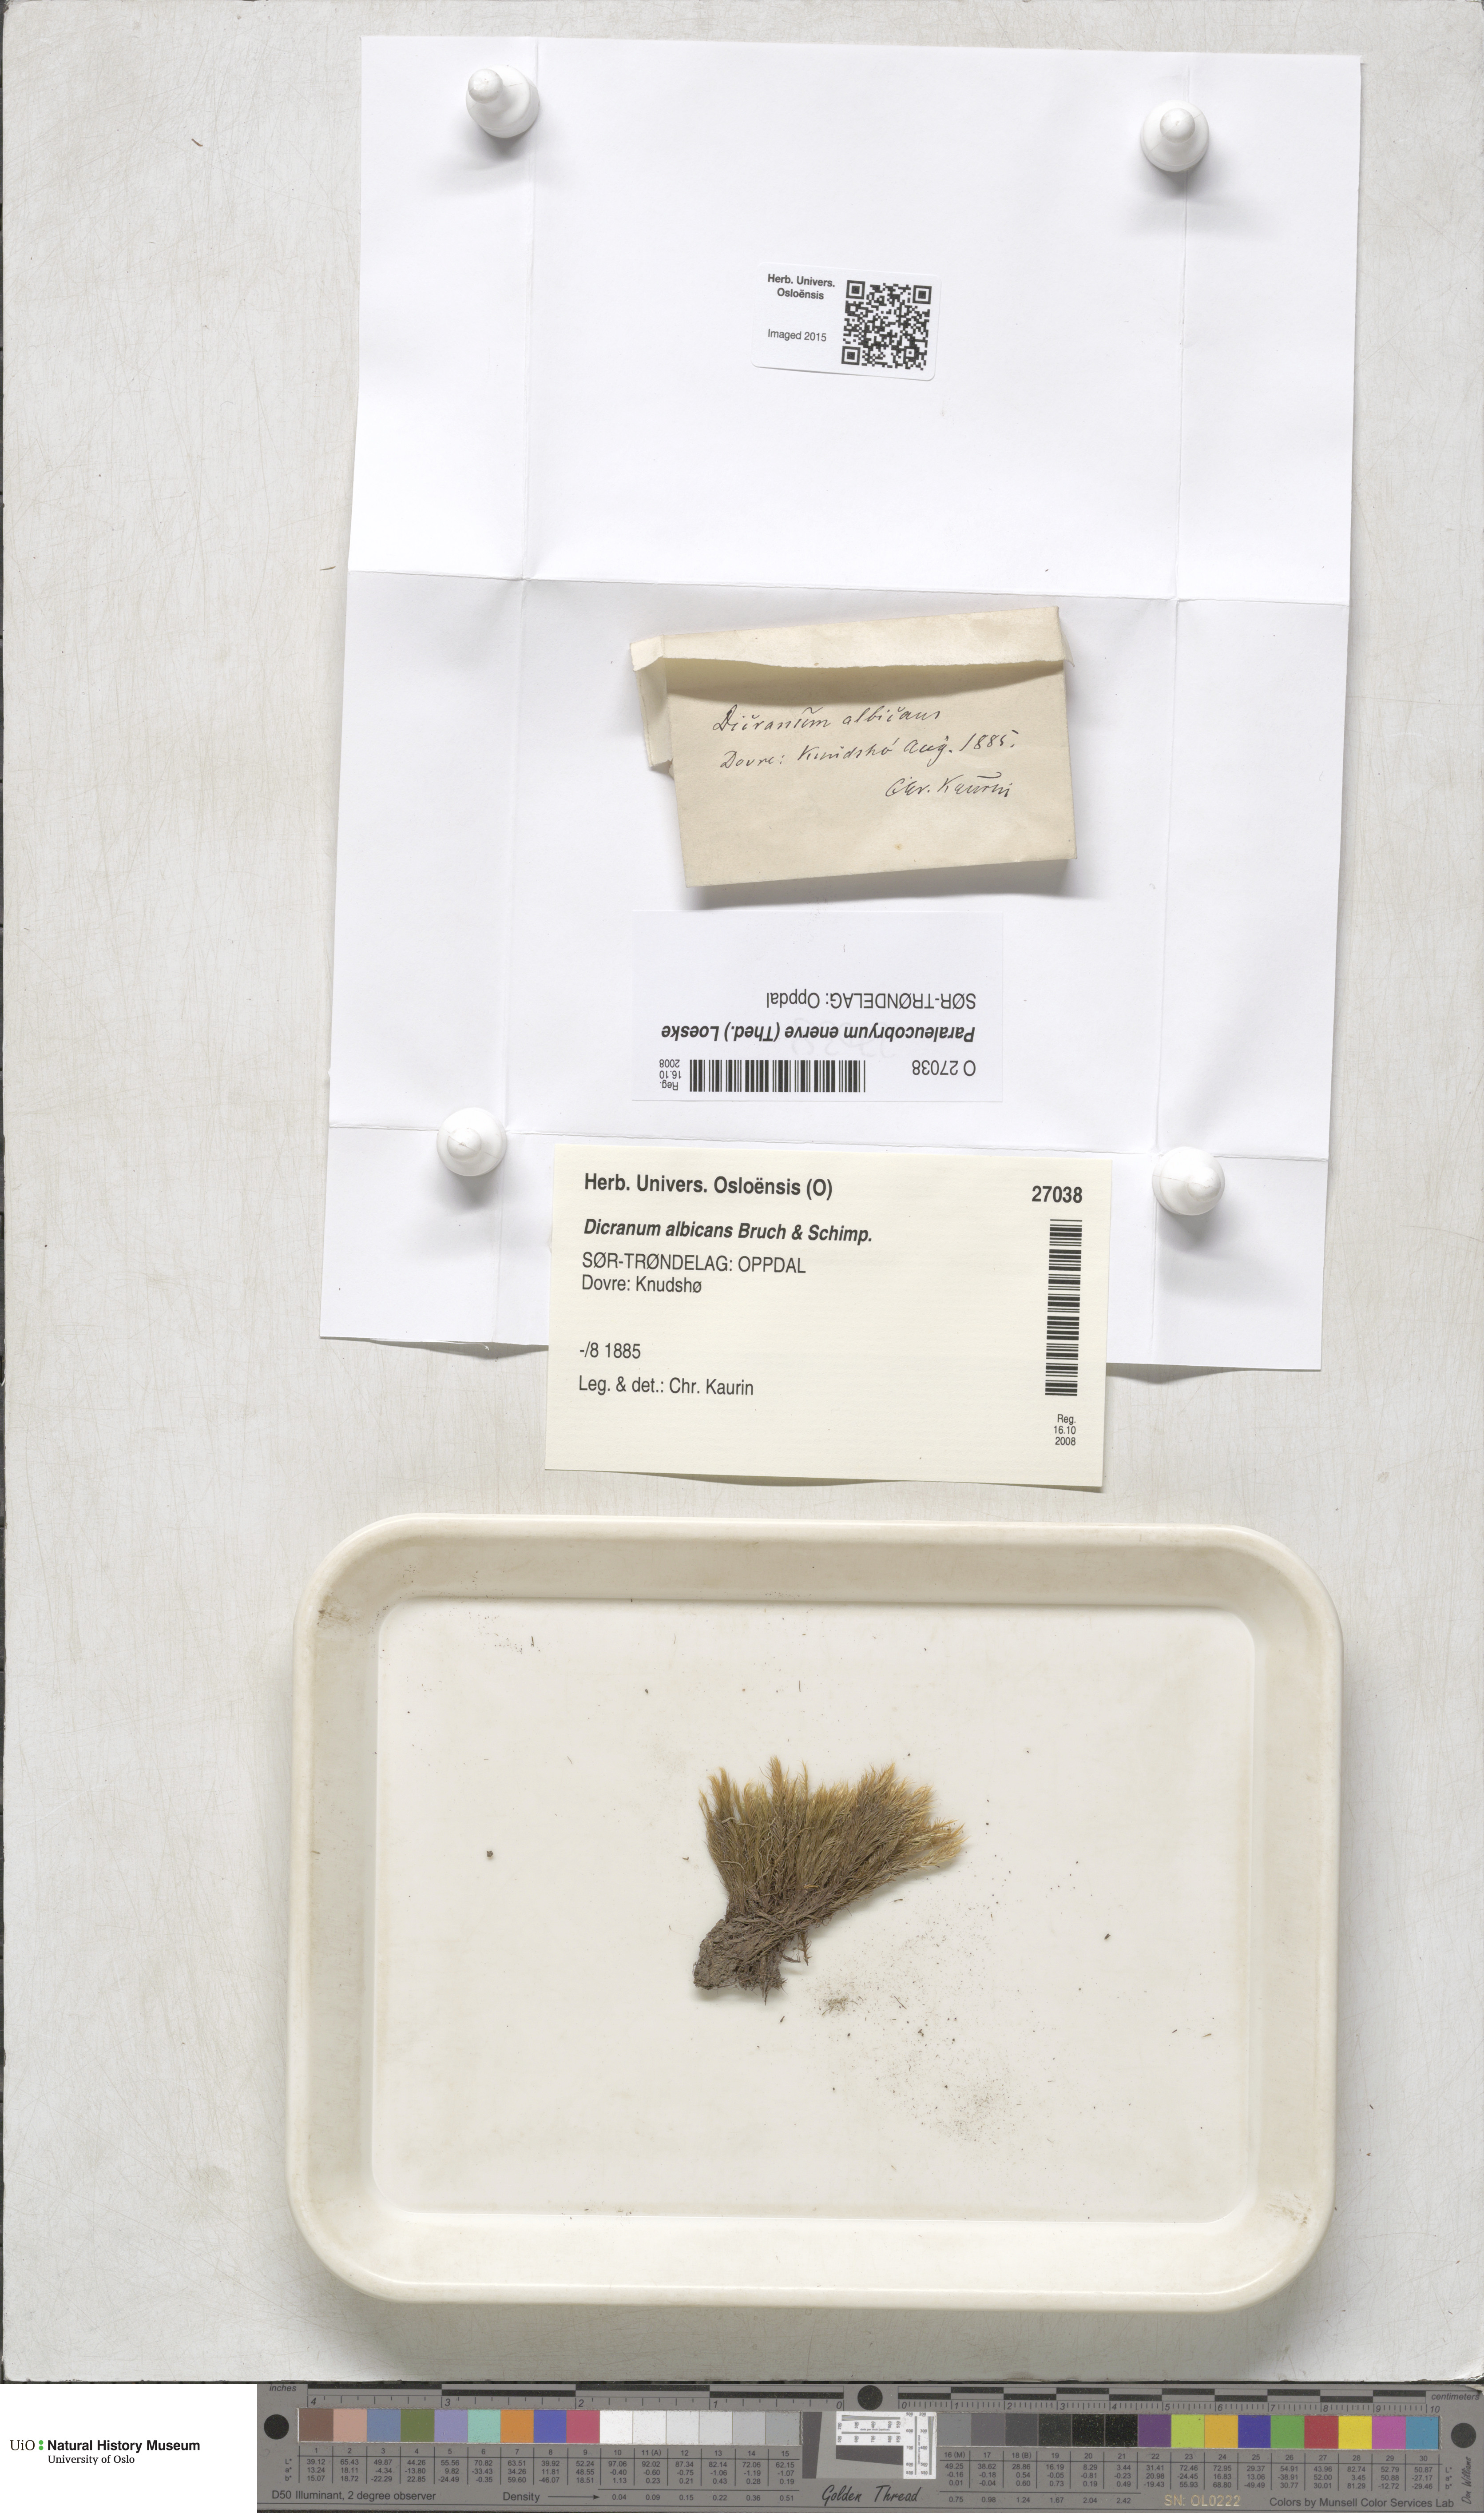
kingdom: Plantae
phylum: Bryophyta
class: Bryopsida
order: Dicranales
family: Dicranaceae
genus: Paraleucobryum
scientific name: Paraleucobryum enerve
